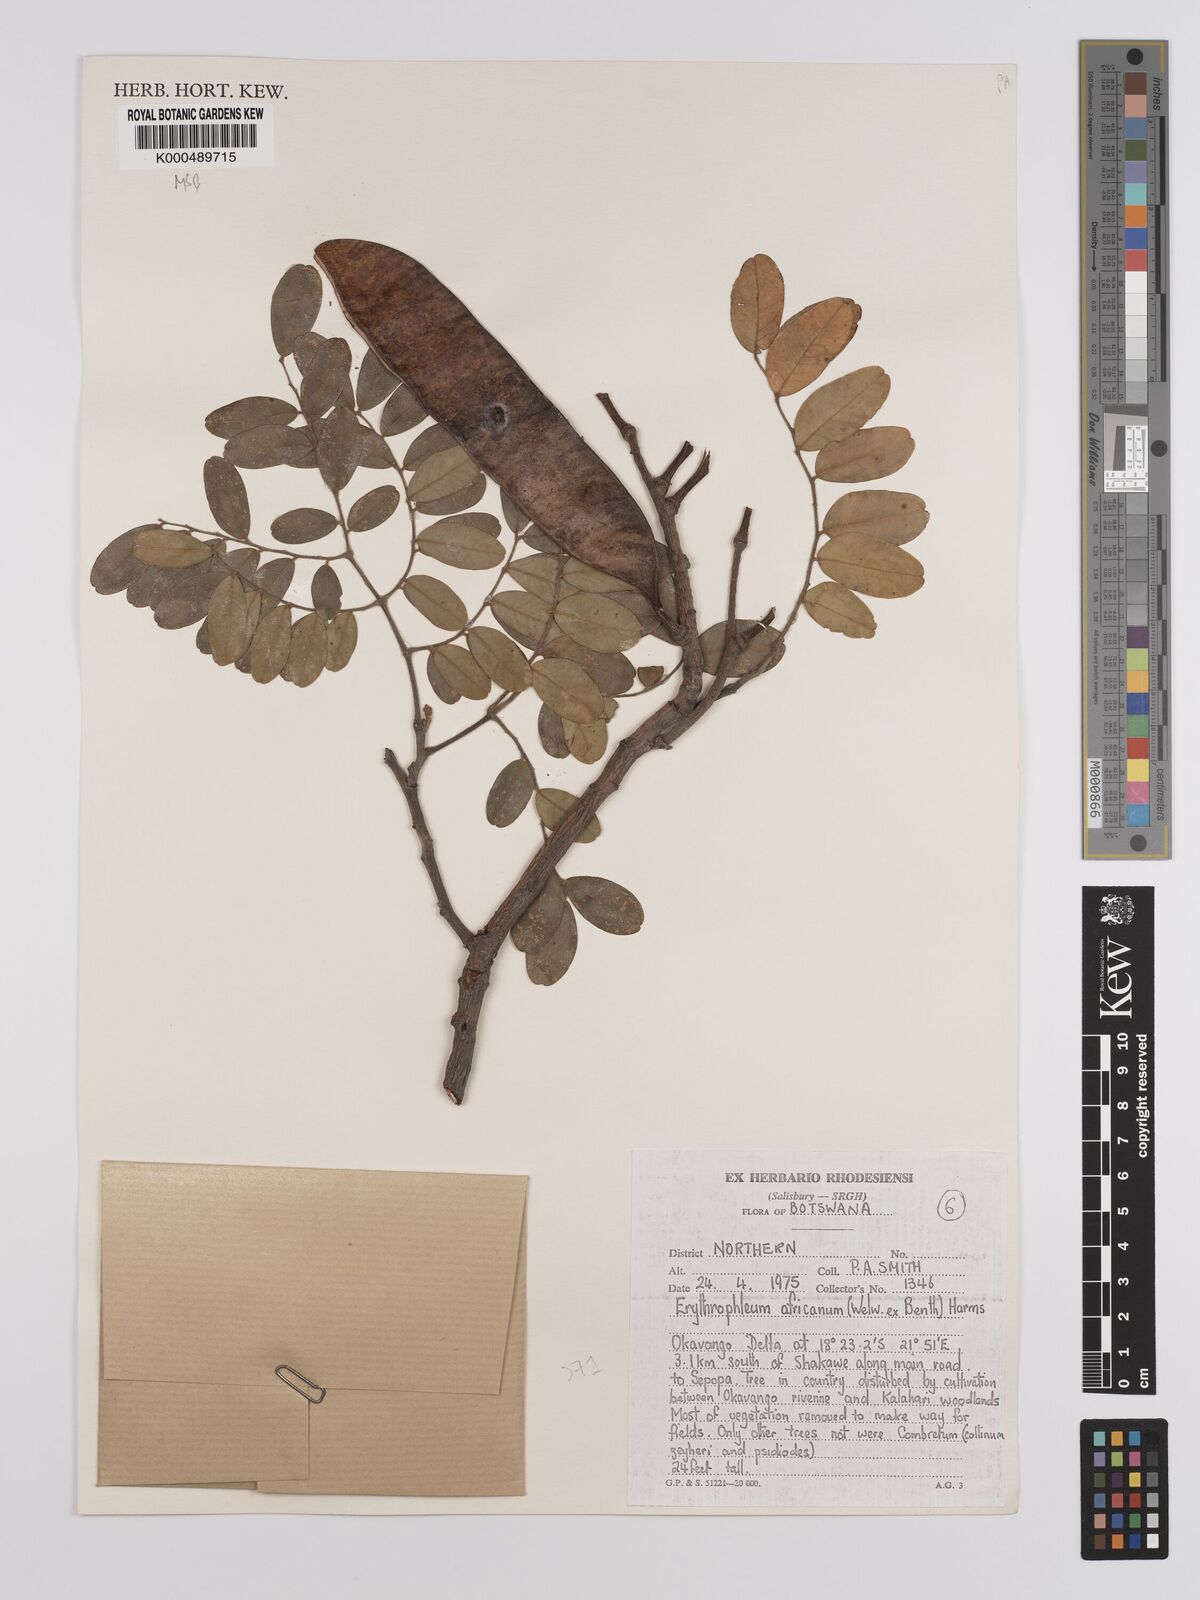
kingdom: Plantae
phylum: Tracheophyta
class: Magnoliopsida
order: Fabales
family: Fabaceae
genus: Erythrophleum
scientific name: Erythrophleum africanum
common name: African blackwood
